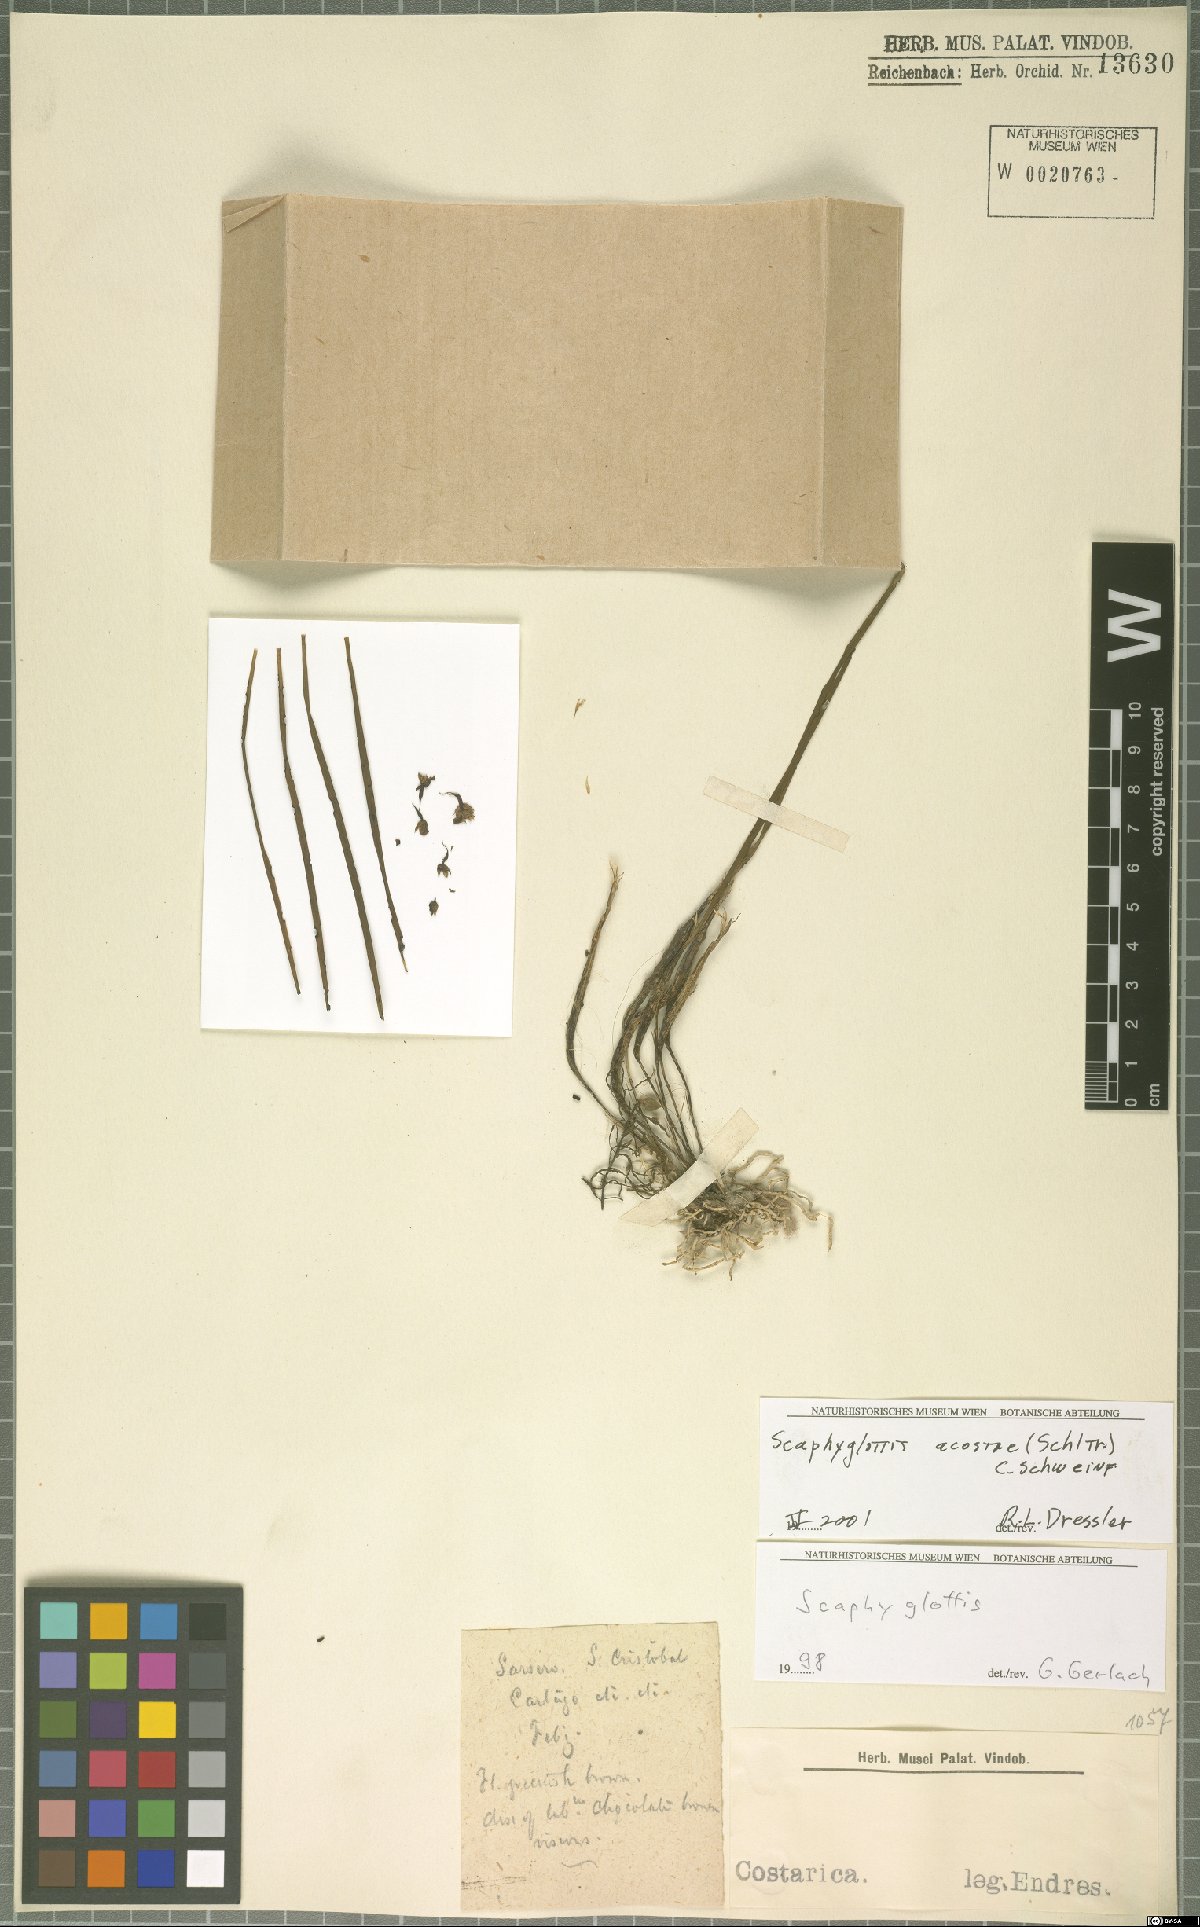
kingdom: Plantae
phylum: Tracheophyta
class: Liliopsida
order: Asparagales
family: Orchidaceae
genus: Scaphyglottis
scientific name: Scaphyglottis acostae
